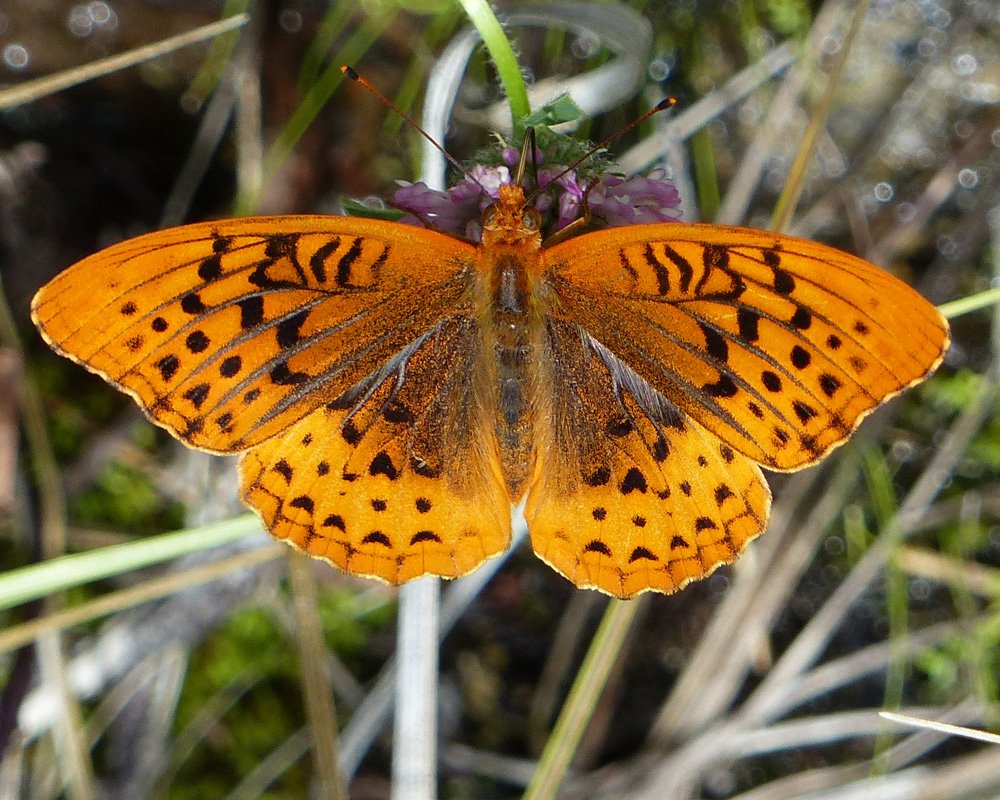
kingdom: Animalia
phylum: Arthropoda
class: Insecta
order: Lepidoptera
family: Nymphalidae
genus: Speyeria
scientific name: Speyeria cybele
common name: Great Spangled Fritillary
